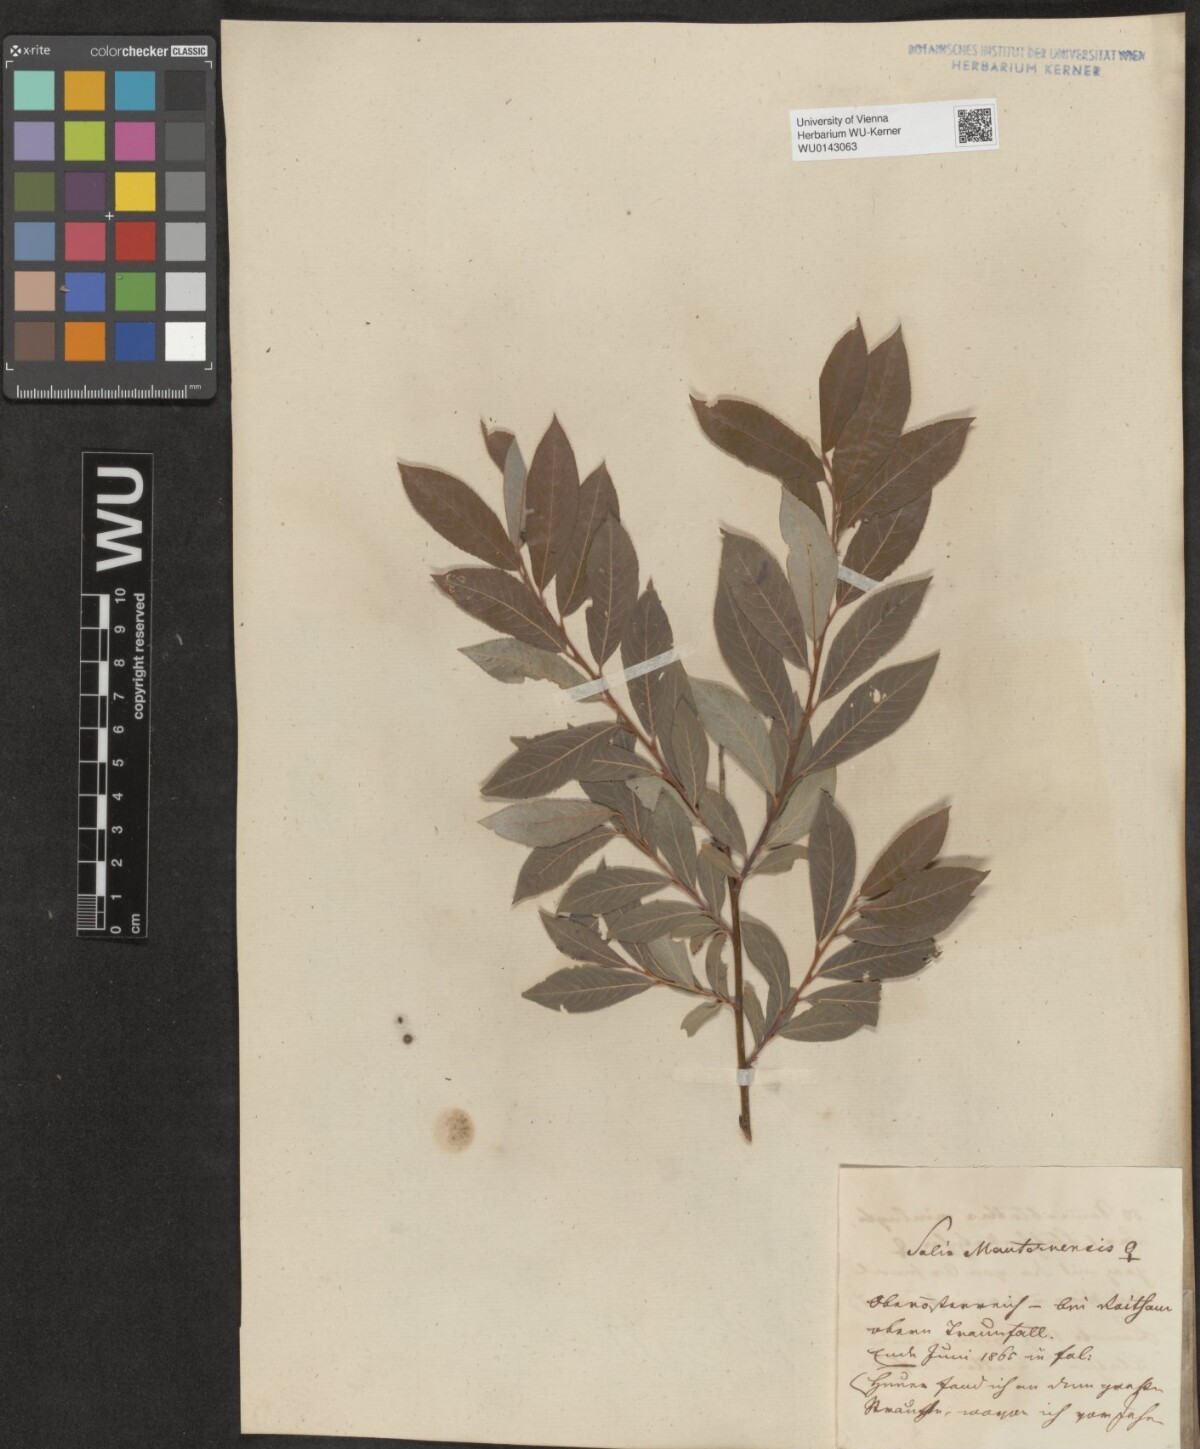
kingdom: Plantae
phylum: Tracheophyta
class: Magnoliopsida
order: Malpighiales
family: Salicaceae
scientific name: Salicaceae
